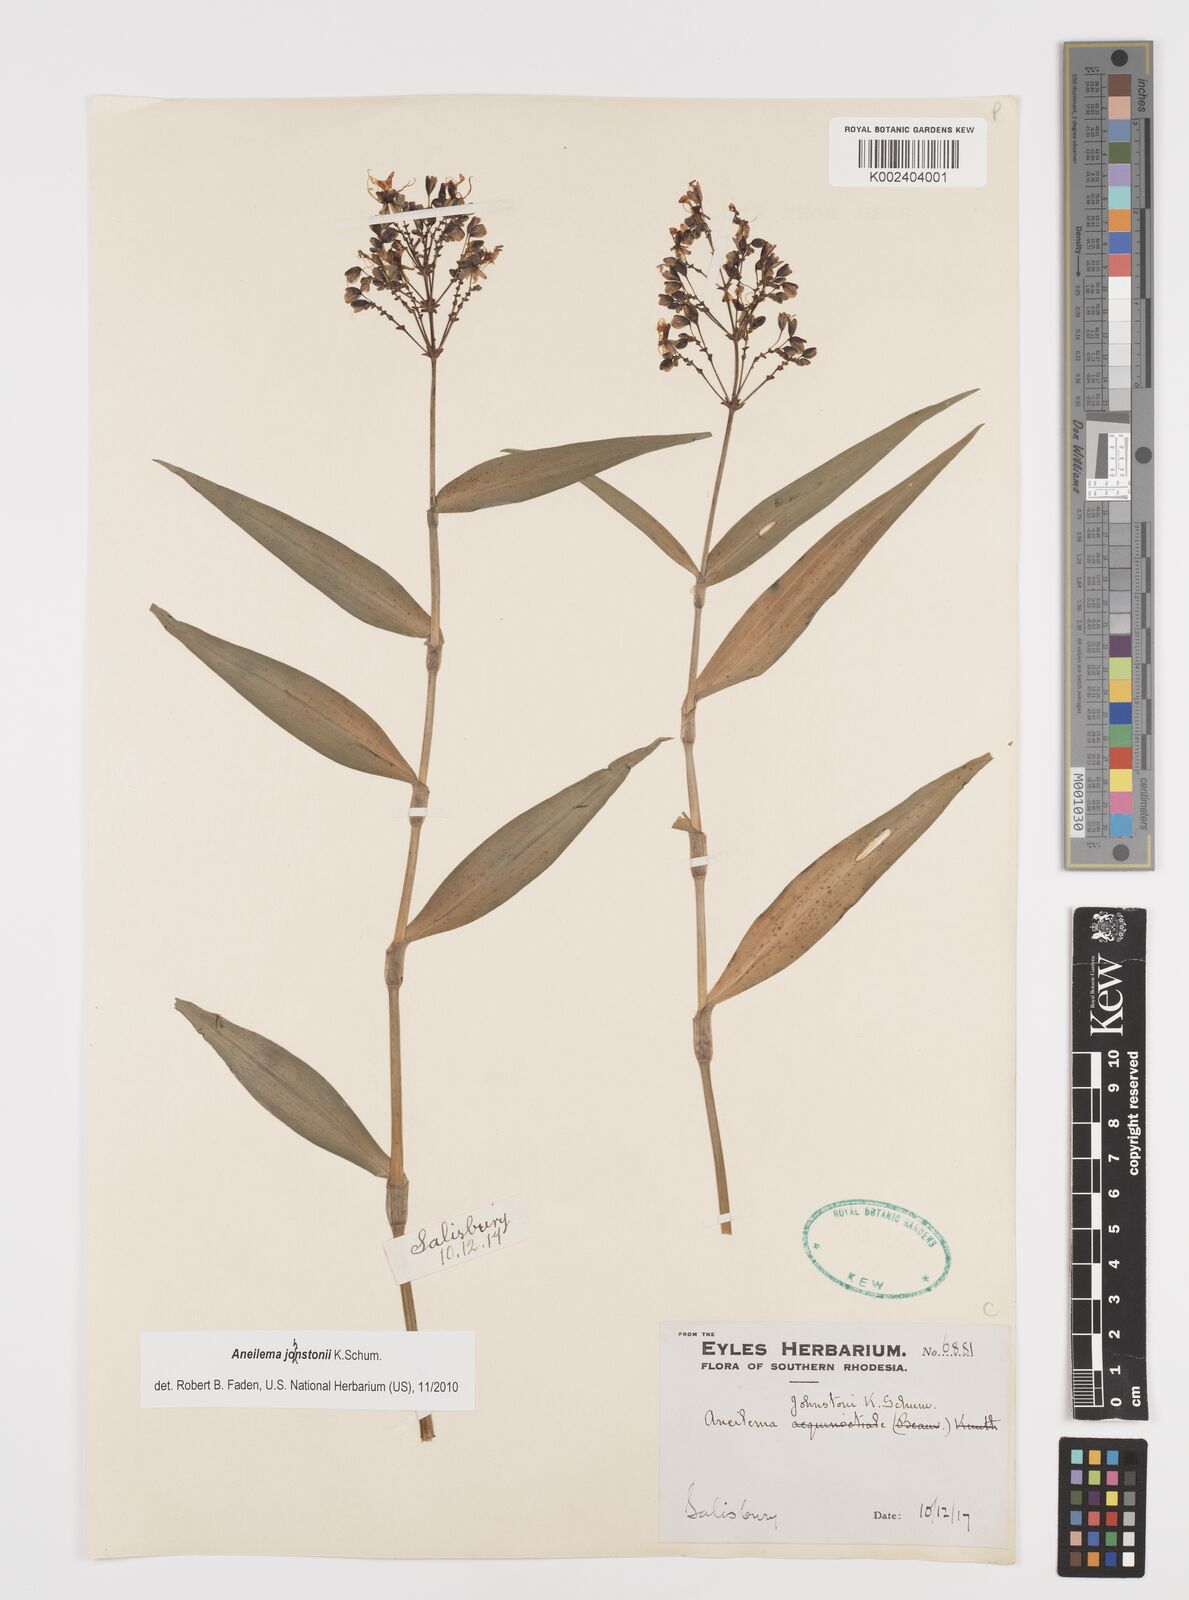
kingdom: Plantae
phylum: Tracheophyta
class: Liliopsida
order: Commelinales
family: Commelinaceae
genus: Aneilema
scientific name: Aneilema johnstonii
